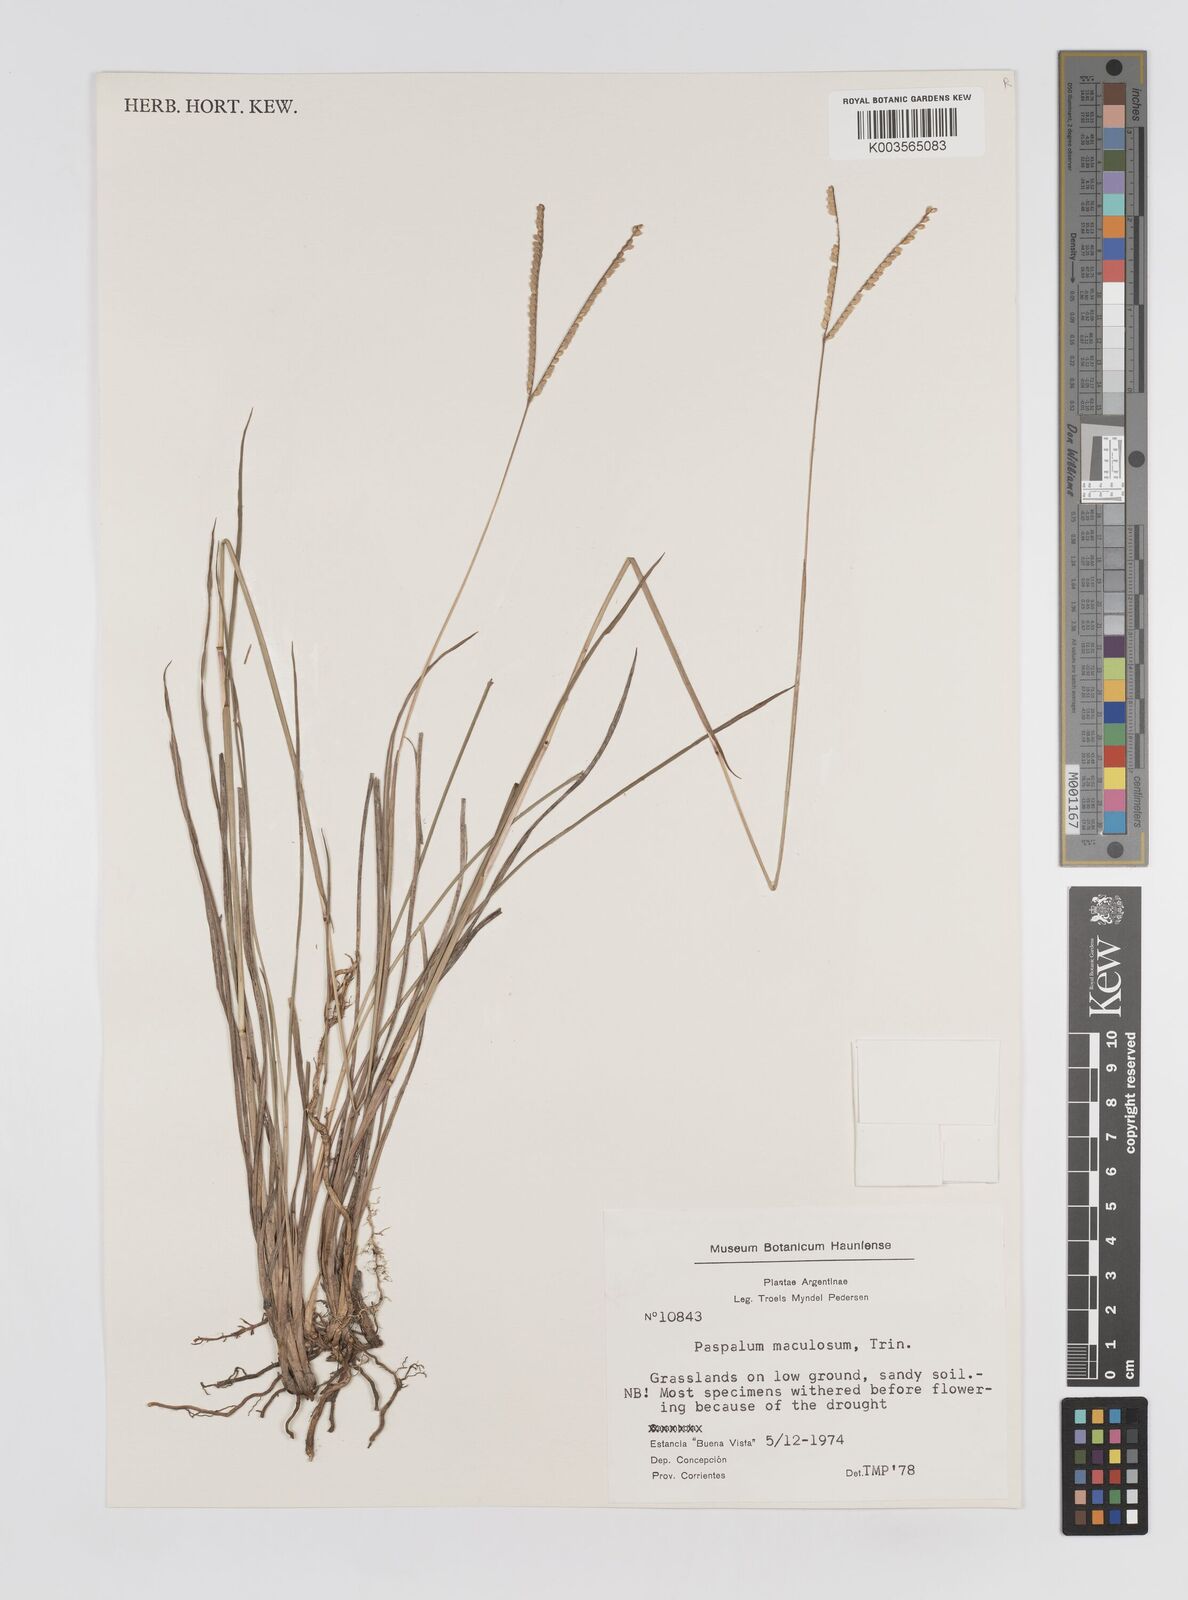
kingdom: Plantae
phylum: Tracheophyta
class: Liliopsida
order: Poales
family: Poaceae
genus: Paspalum
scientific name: Paspalum maculosum
